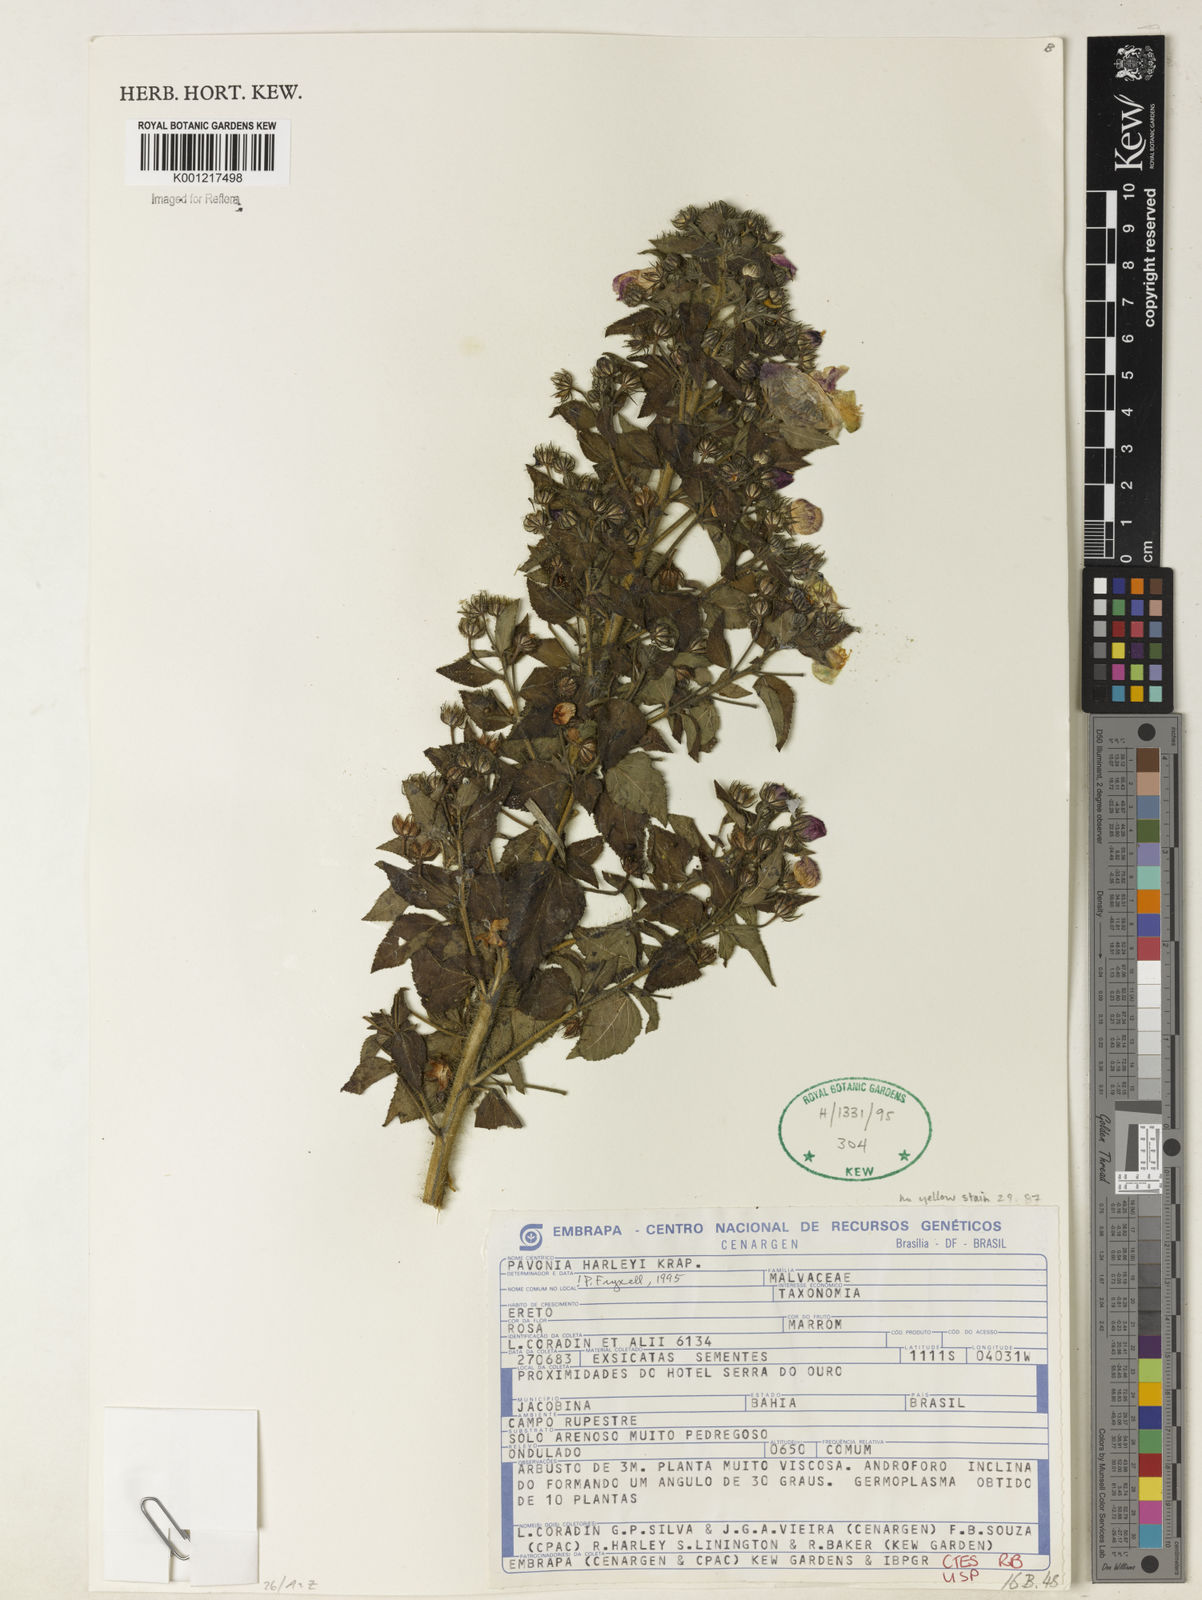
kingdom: Plantae
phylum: Tracheophyta
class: Magnoliopsida
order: Malvales
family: Malvaceae
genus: Pavonia
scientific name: Pavonia harleyi
